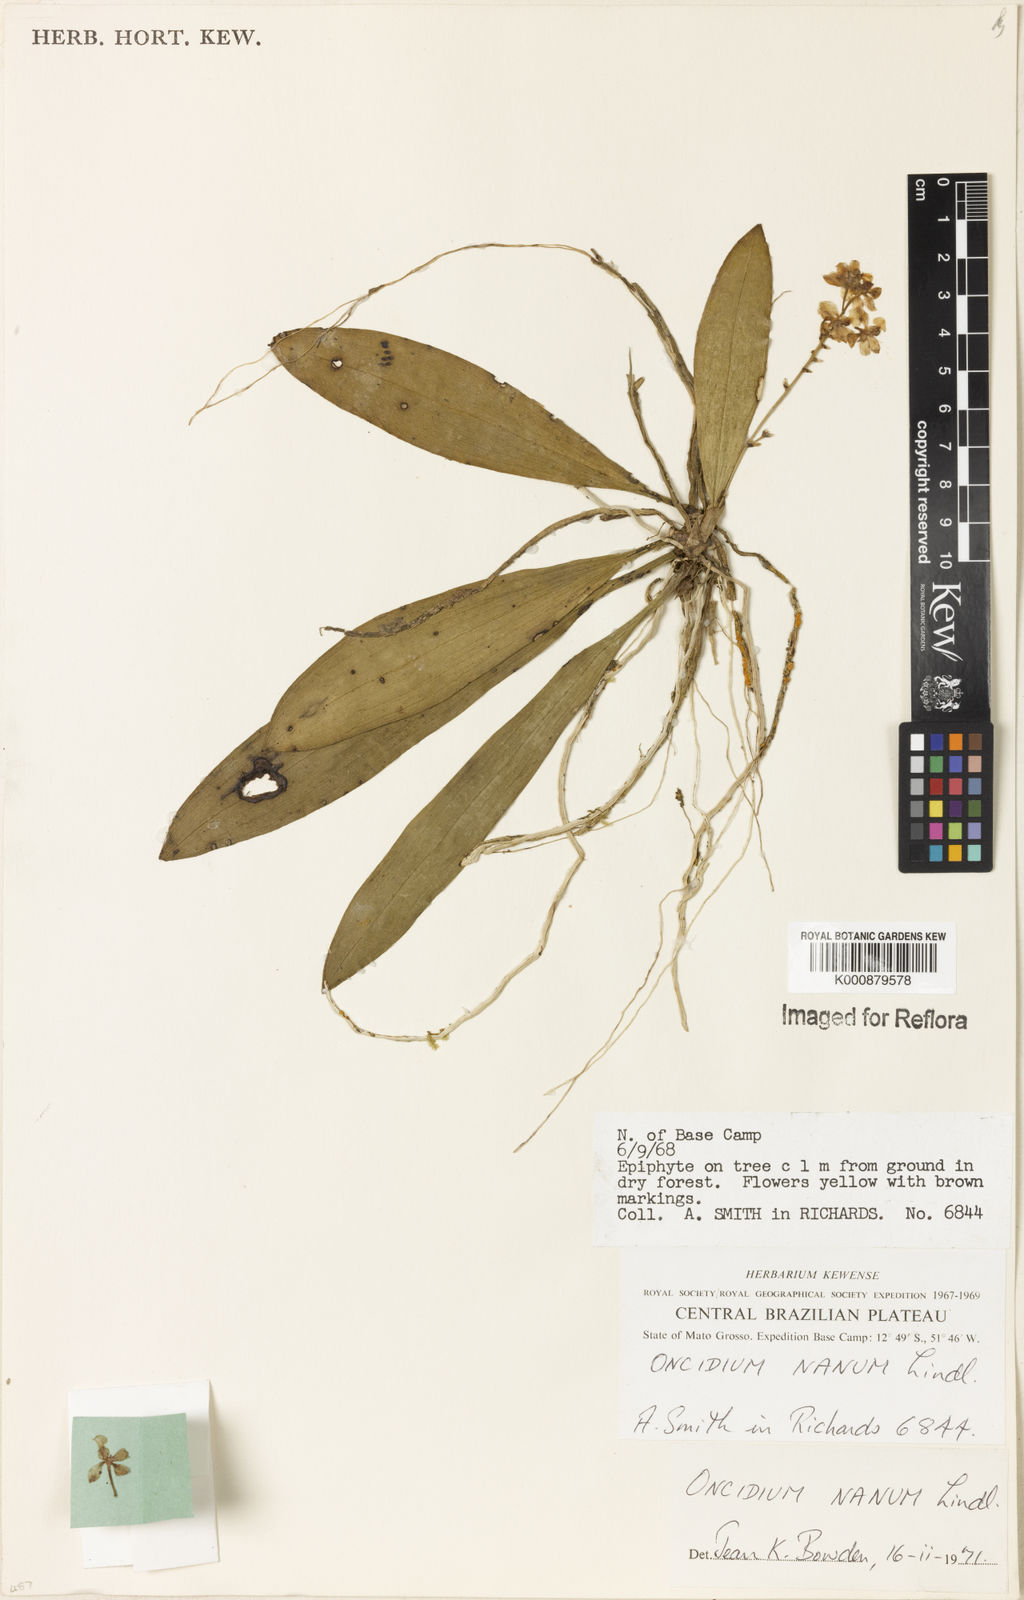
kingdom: Plantae
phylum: Tracheophyta
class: Liliopsida
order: Asparagales
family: Orchidaceae
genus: Trichocentrum
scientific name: Trichocentrum nanum
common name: Mule-ear orchid
